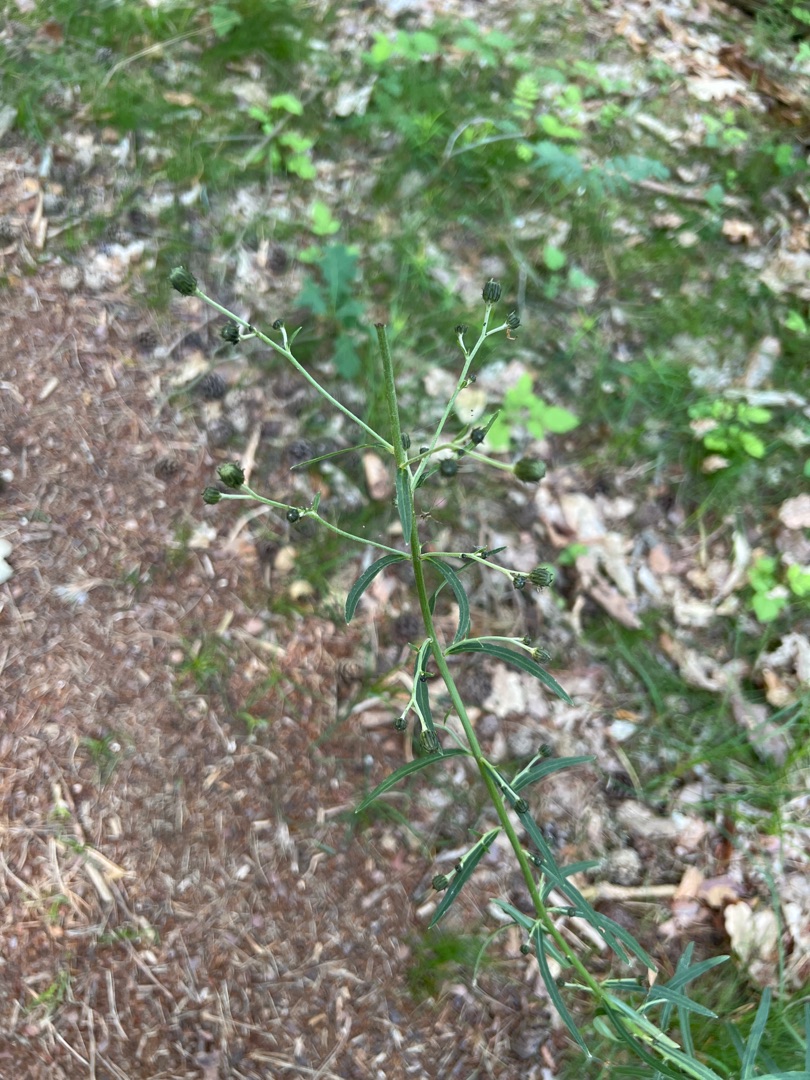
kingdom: Plantae
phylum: Tracheophyta
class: Magnoliopsida
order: Asterales
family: Asteraceae
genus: Hieracium
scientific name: Hieracium umbellatum
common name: Smalbladet høgeurt
